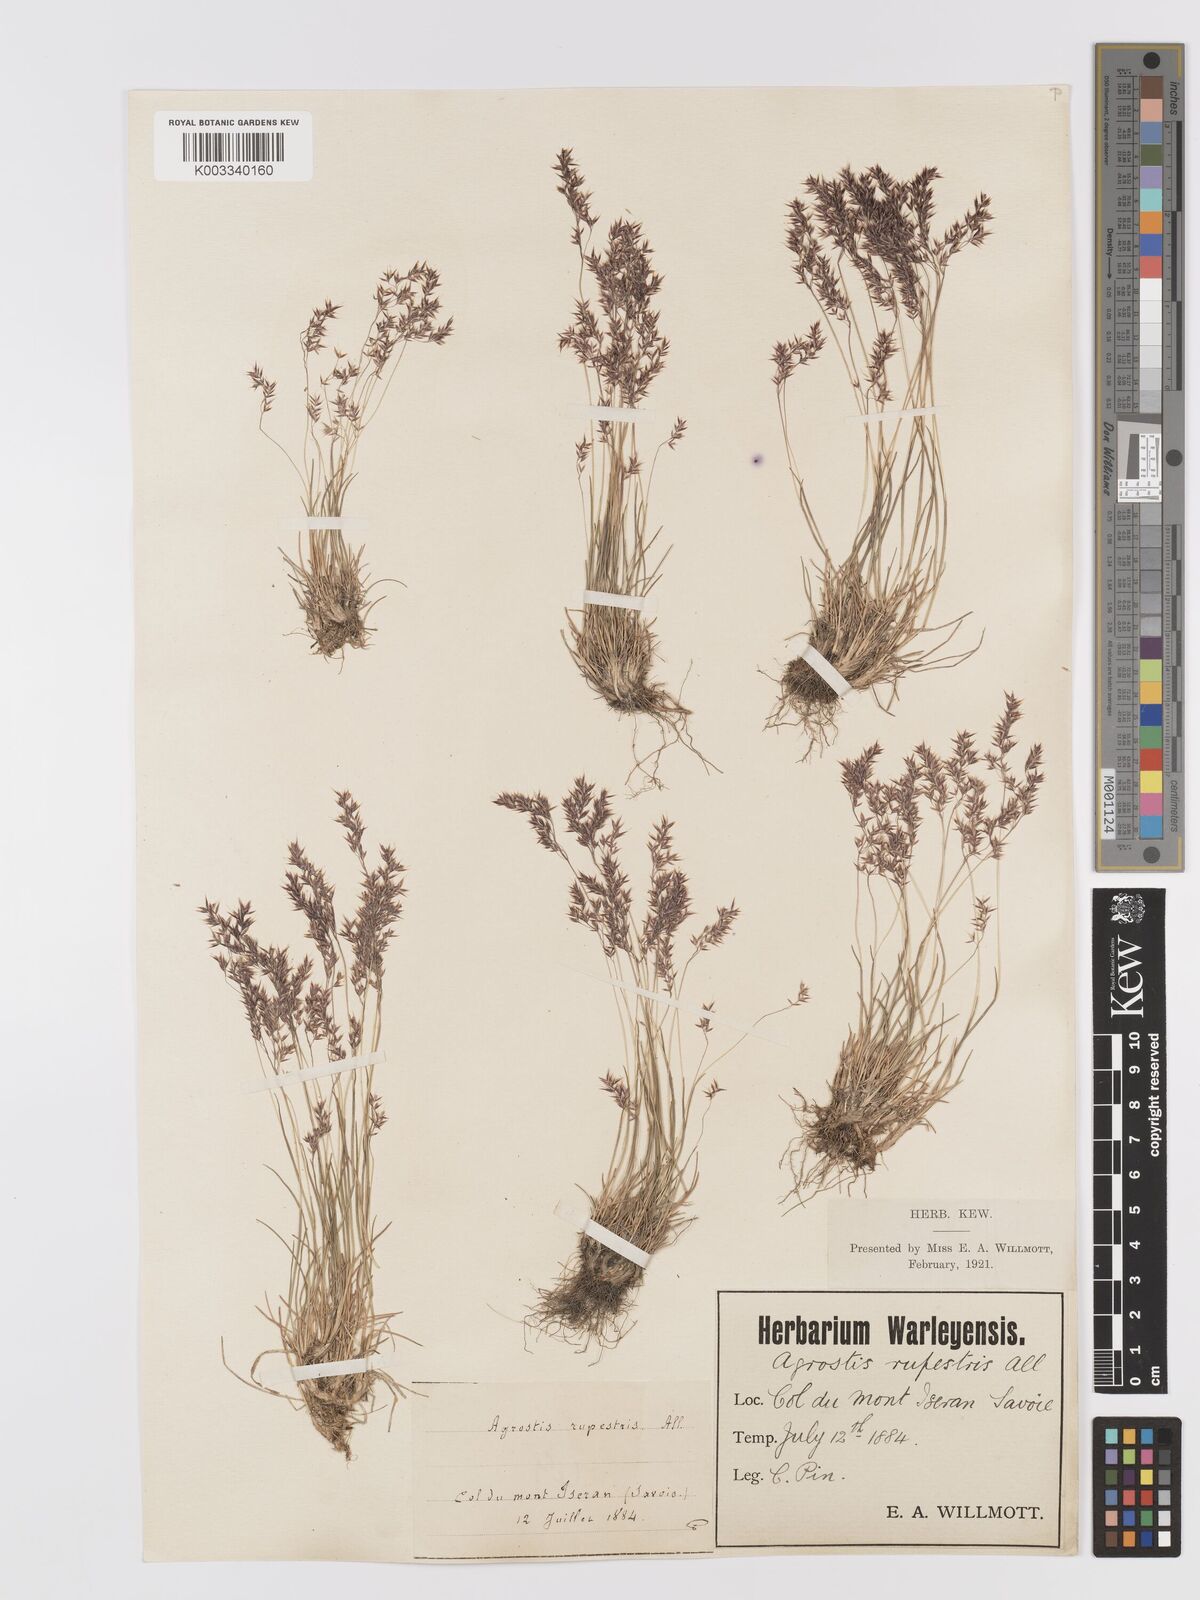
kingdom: Plantae
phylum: Tracheophyta
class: Liliopsida
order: Poales
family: Poaceae
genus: Agrostis
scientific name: Agrostis rupestris
